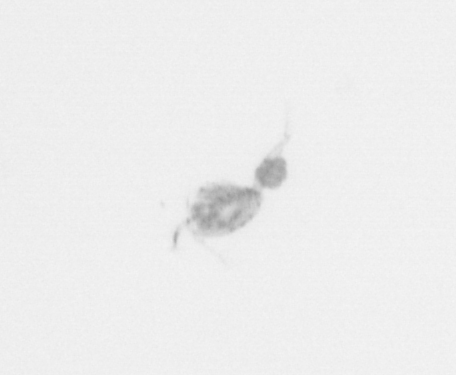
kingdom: Animalia
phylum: Arthropoda
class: Copepoda
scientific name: Copepoda
